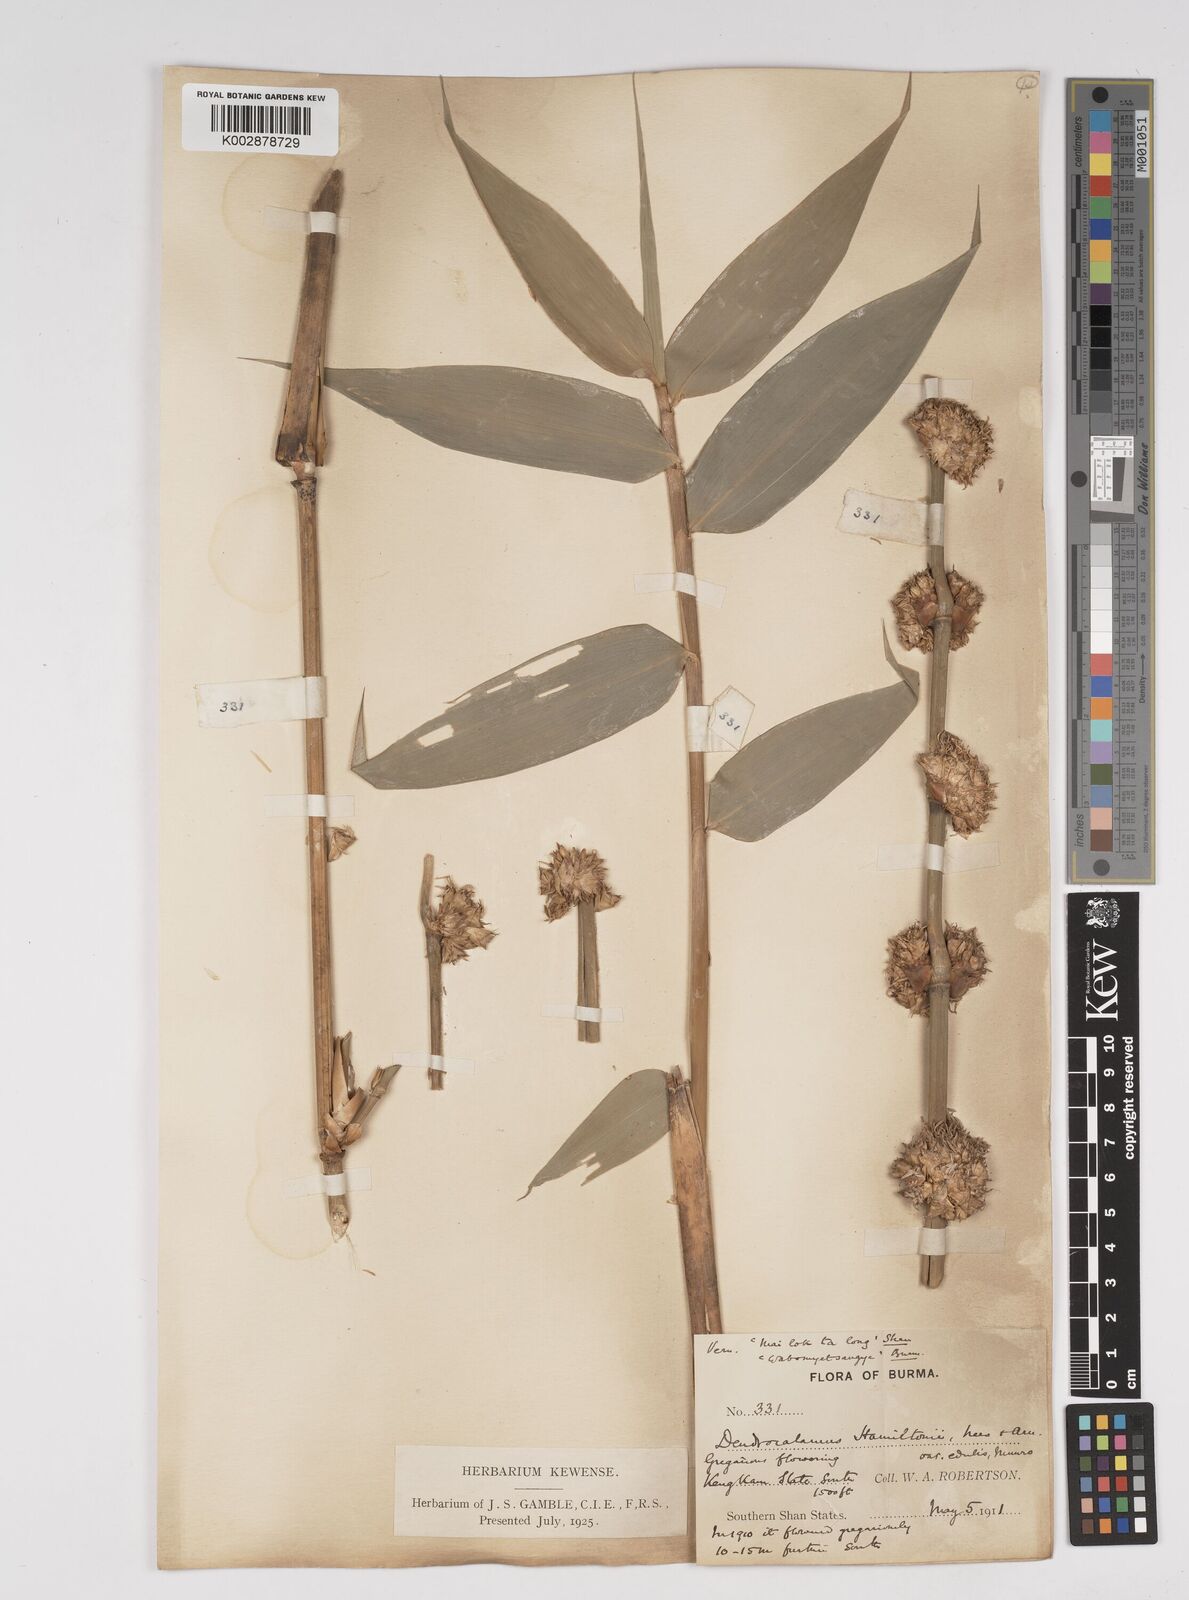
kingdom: Plantae
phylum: Tracheophyta
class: Liliopsida
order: Poales
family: Poaceae
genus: Dendrocalamus
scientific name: Dendrocalamus hamiltonii
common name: Tama bamboo
